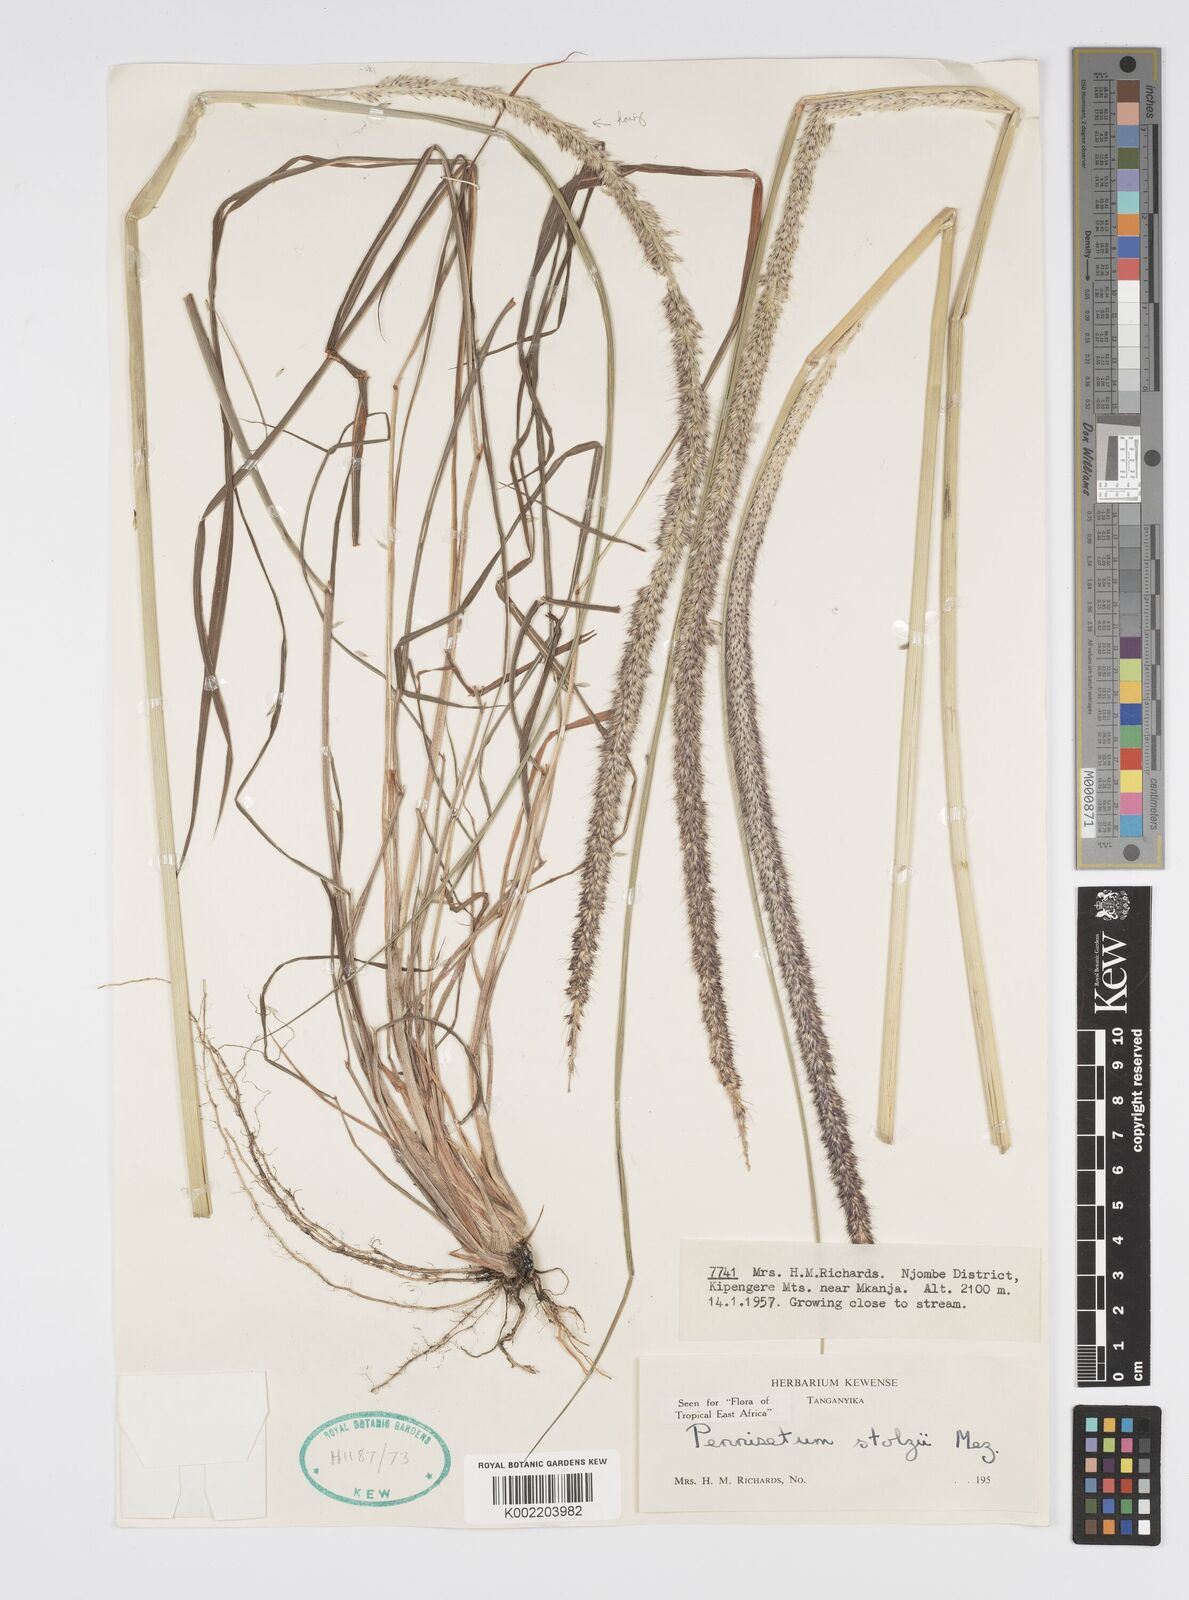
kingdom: Plantae
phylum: Tracheophyta
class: Liliopsida
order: Poales
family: Poaceae
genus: Cenchrus
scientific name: Cenchrus caudatus
